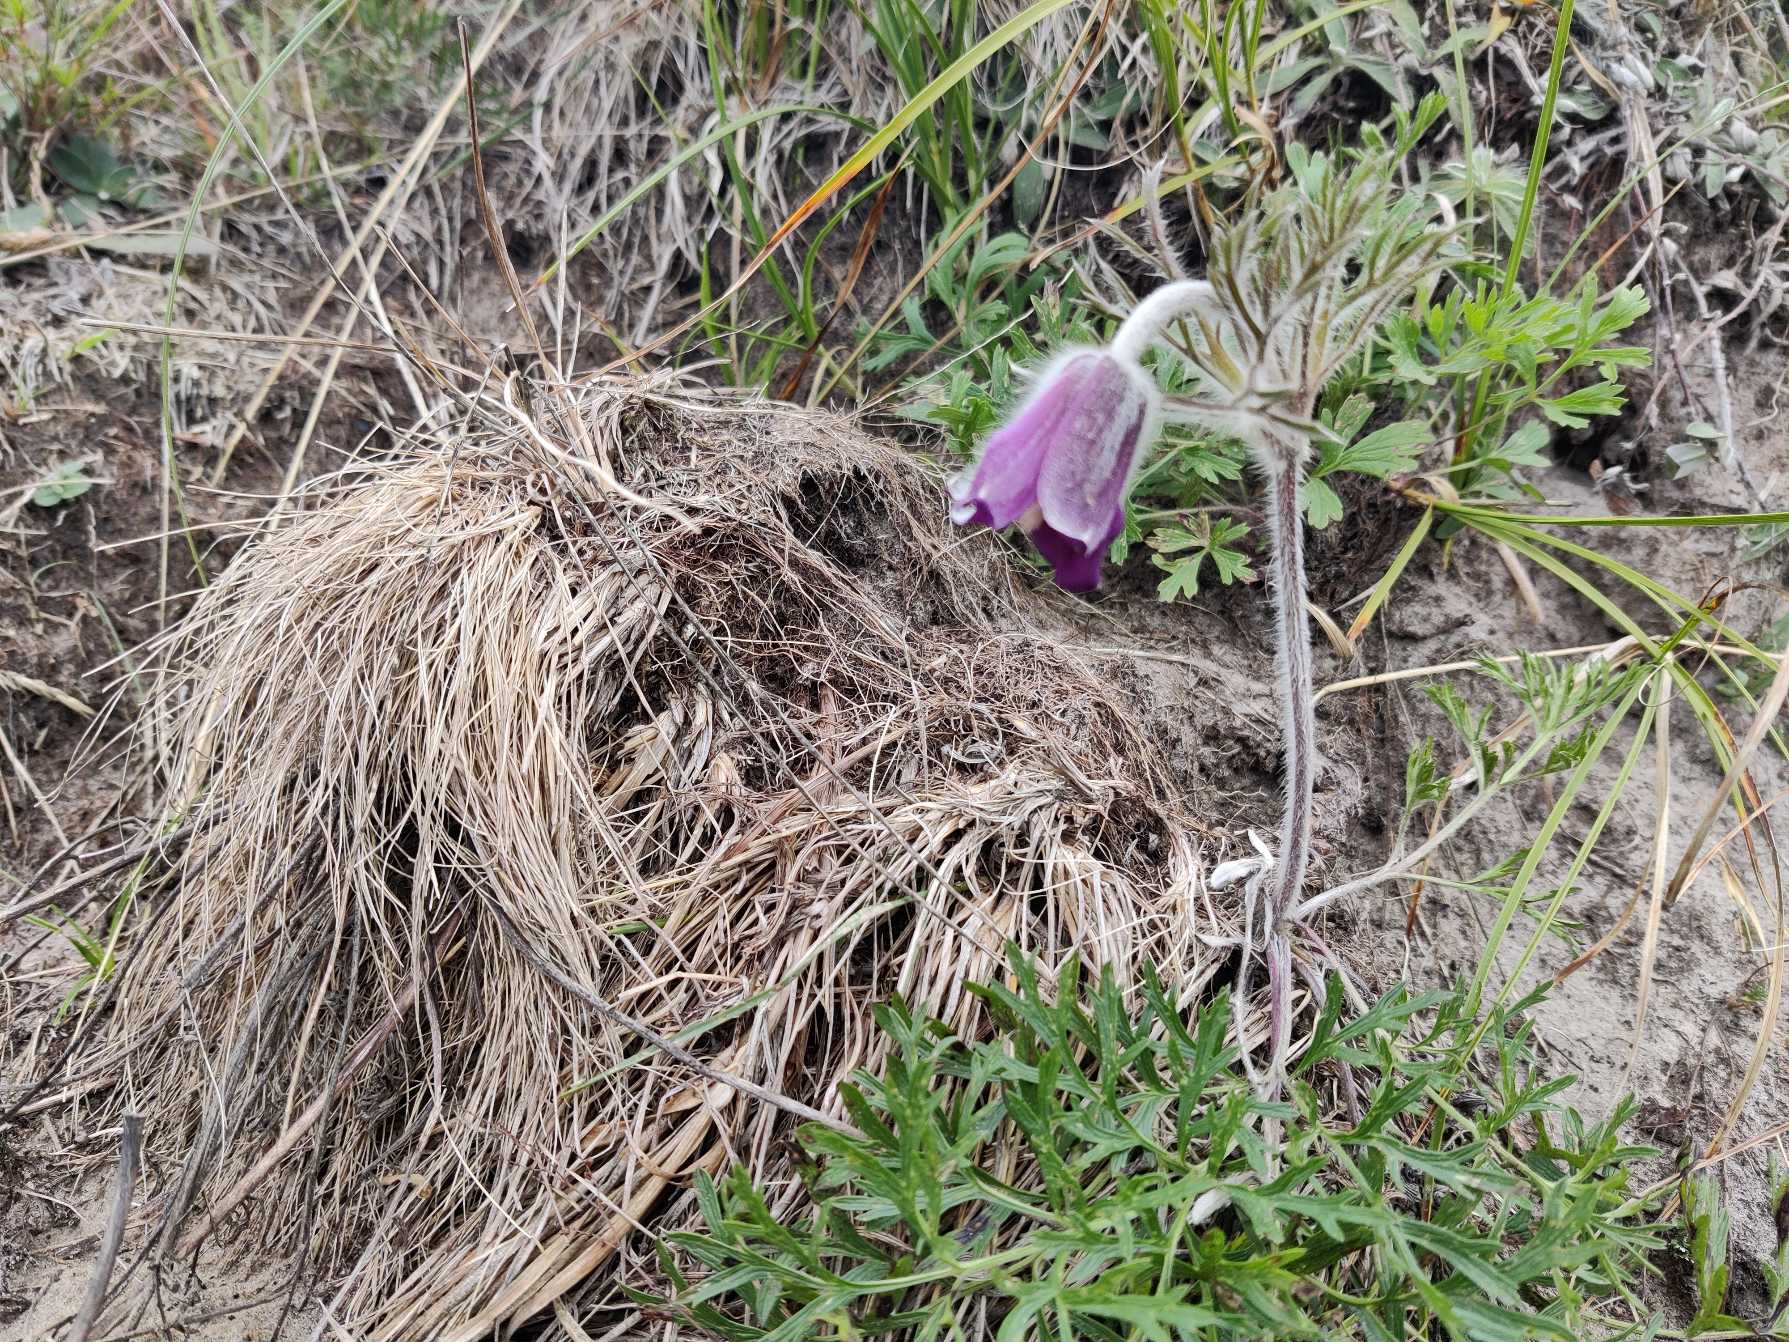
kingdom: Plantae
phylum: Tracheophyta
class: Magnoliopsida
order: Ranunculales
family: Ranunculaceae
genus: Pulsatilla
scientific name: Pulsatilla pratensis
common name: Nikkende kobjælde
